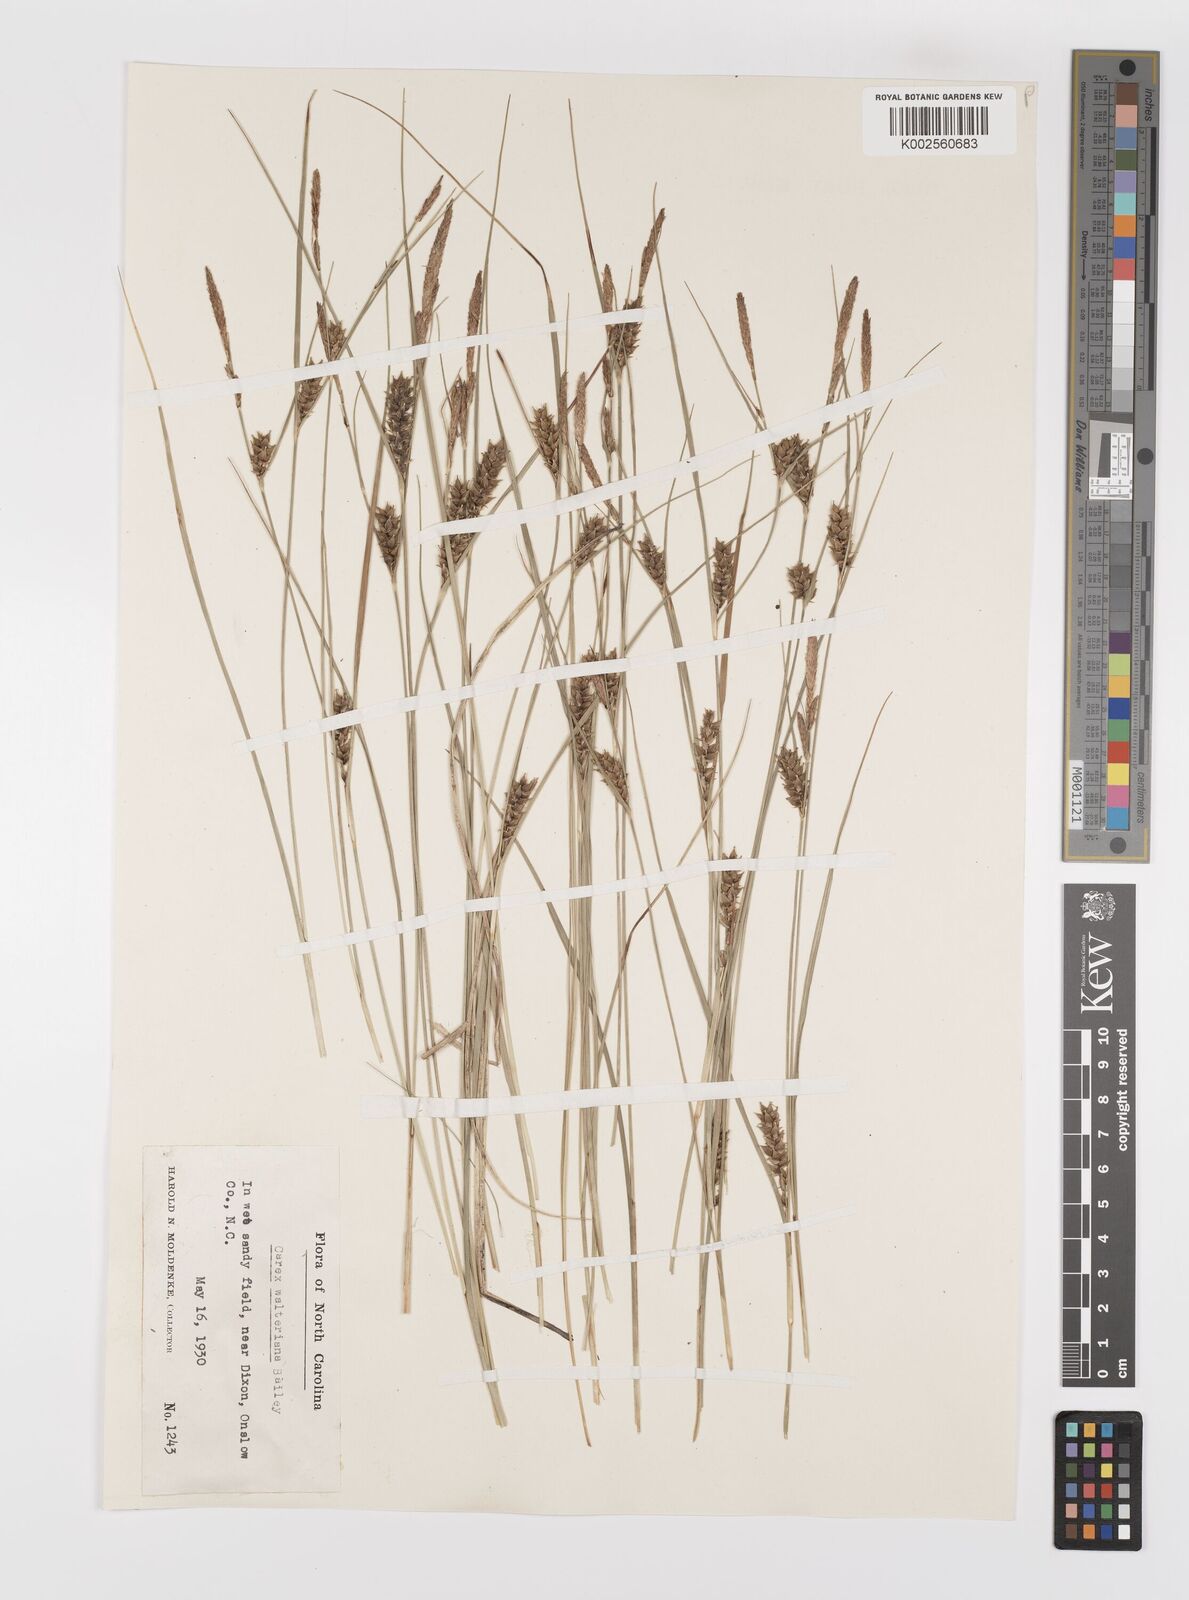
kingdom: Plantae
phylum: Tracheophyta
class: Liliopsida
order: Poales
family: Cyperaceae
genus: Carex
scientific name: Carex striata
